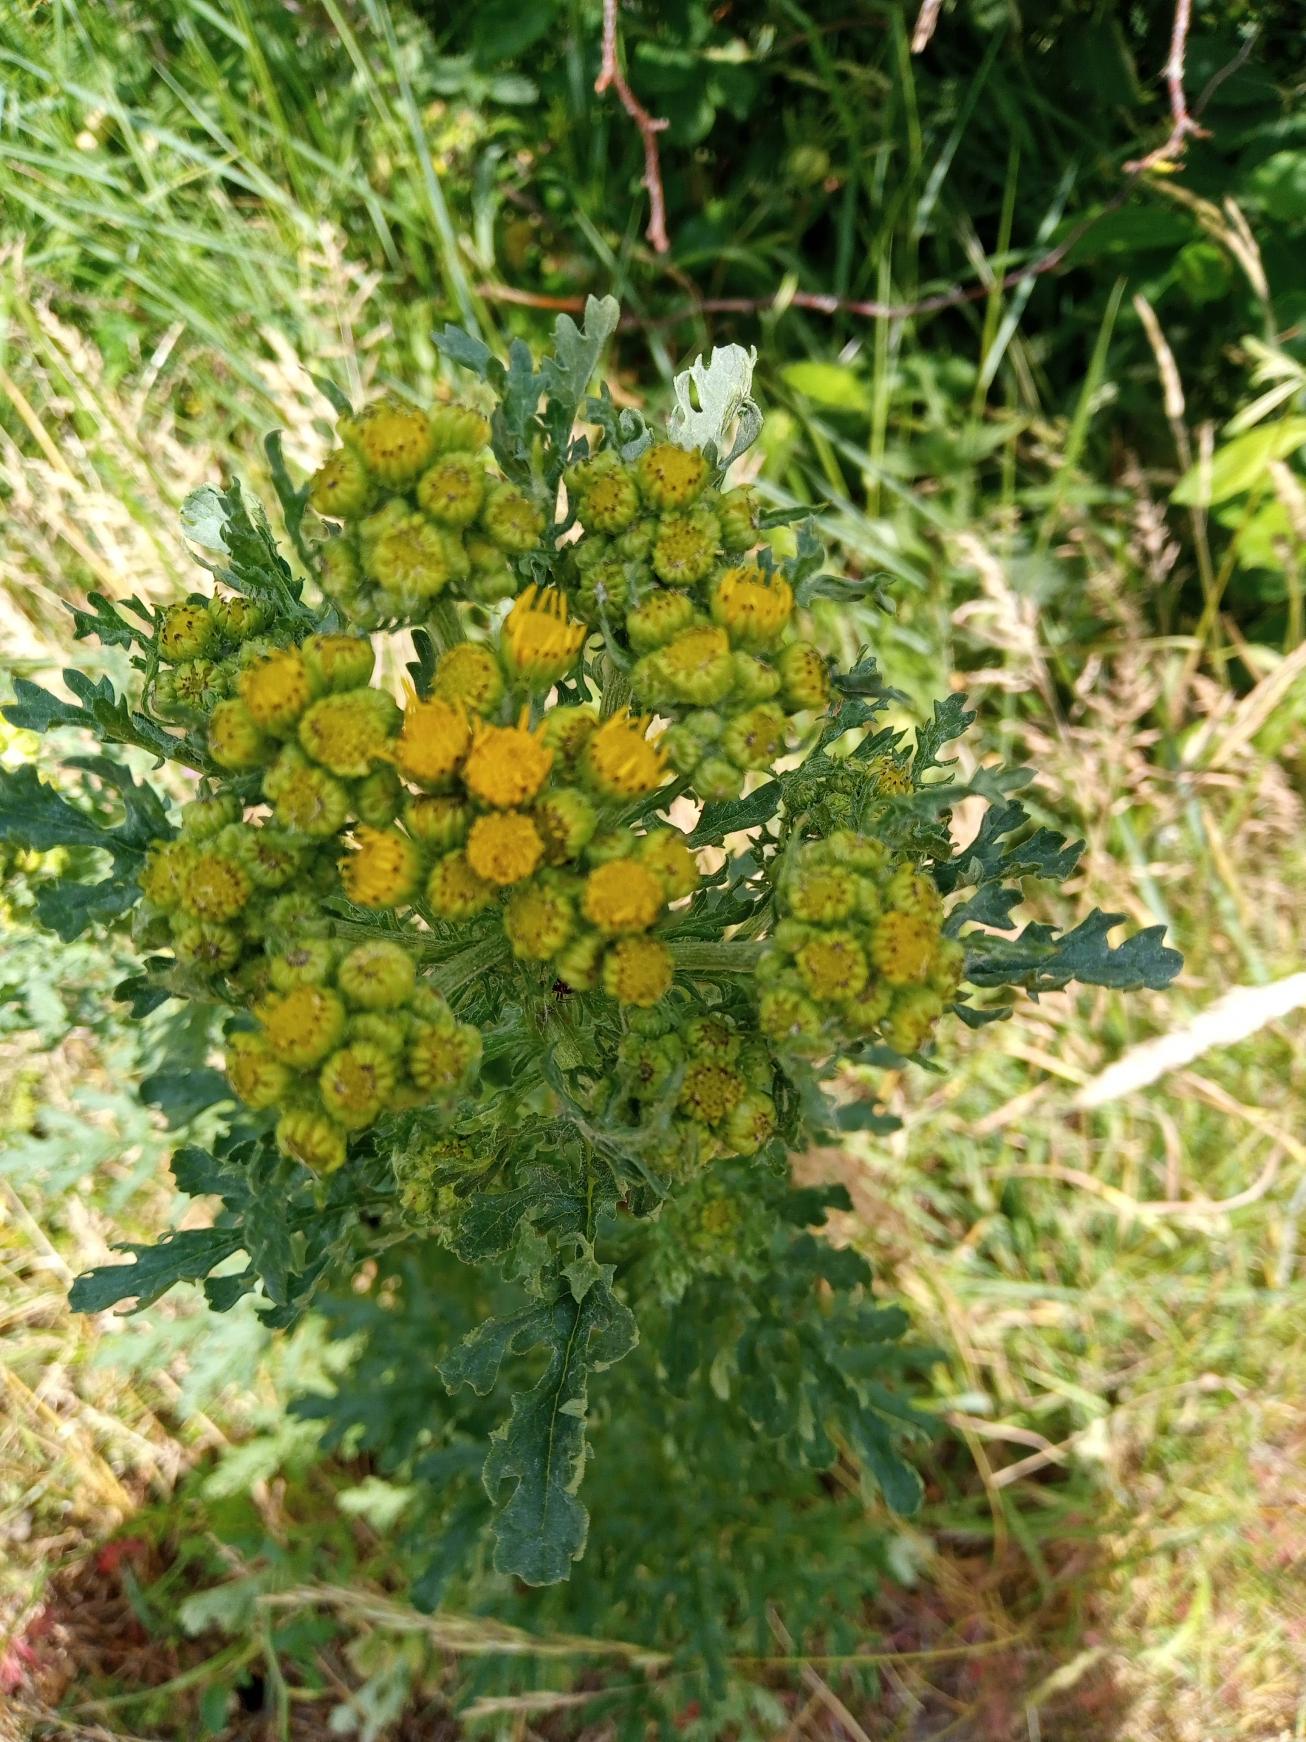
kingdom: Plantae
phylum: Tracheophyta
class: Magnoliopsida
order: Asterales
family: Asteraceae
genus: Jacobaea
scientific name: Jacobaea vulgaris
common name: Eng-brandbæger
